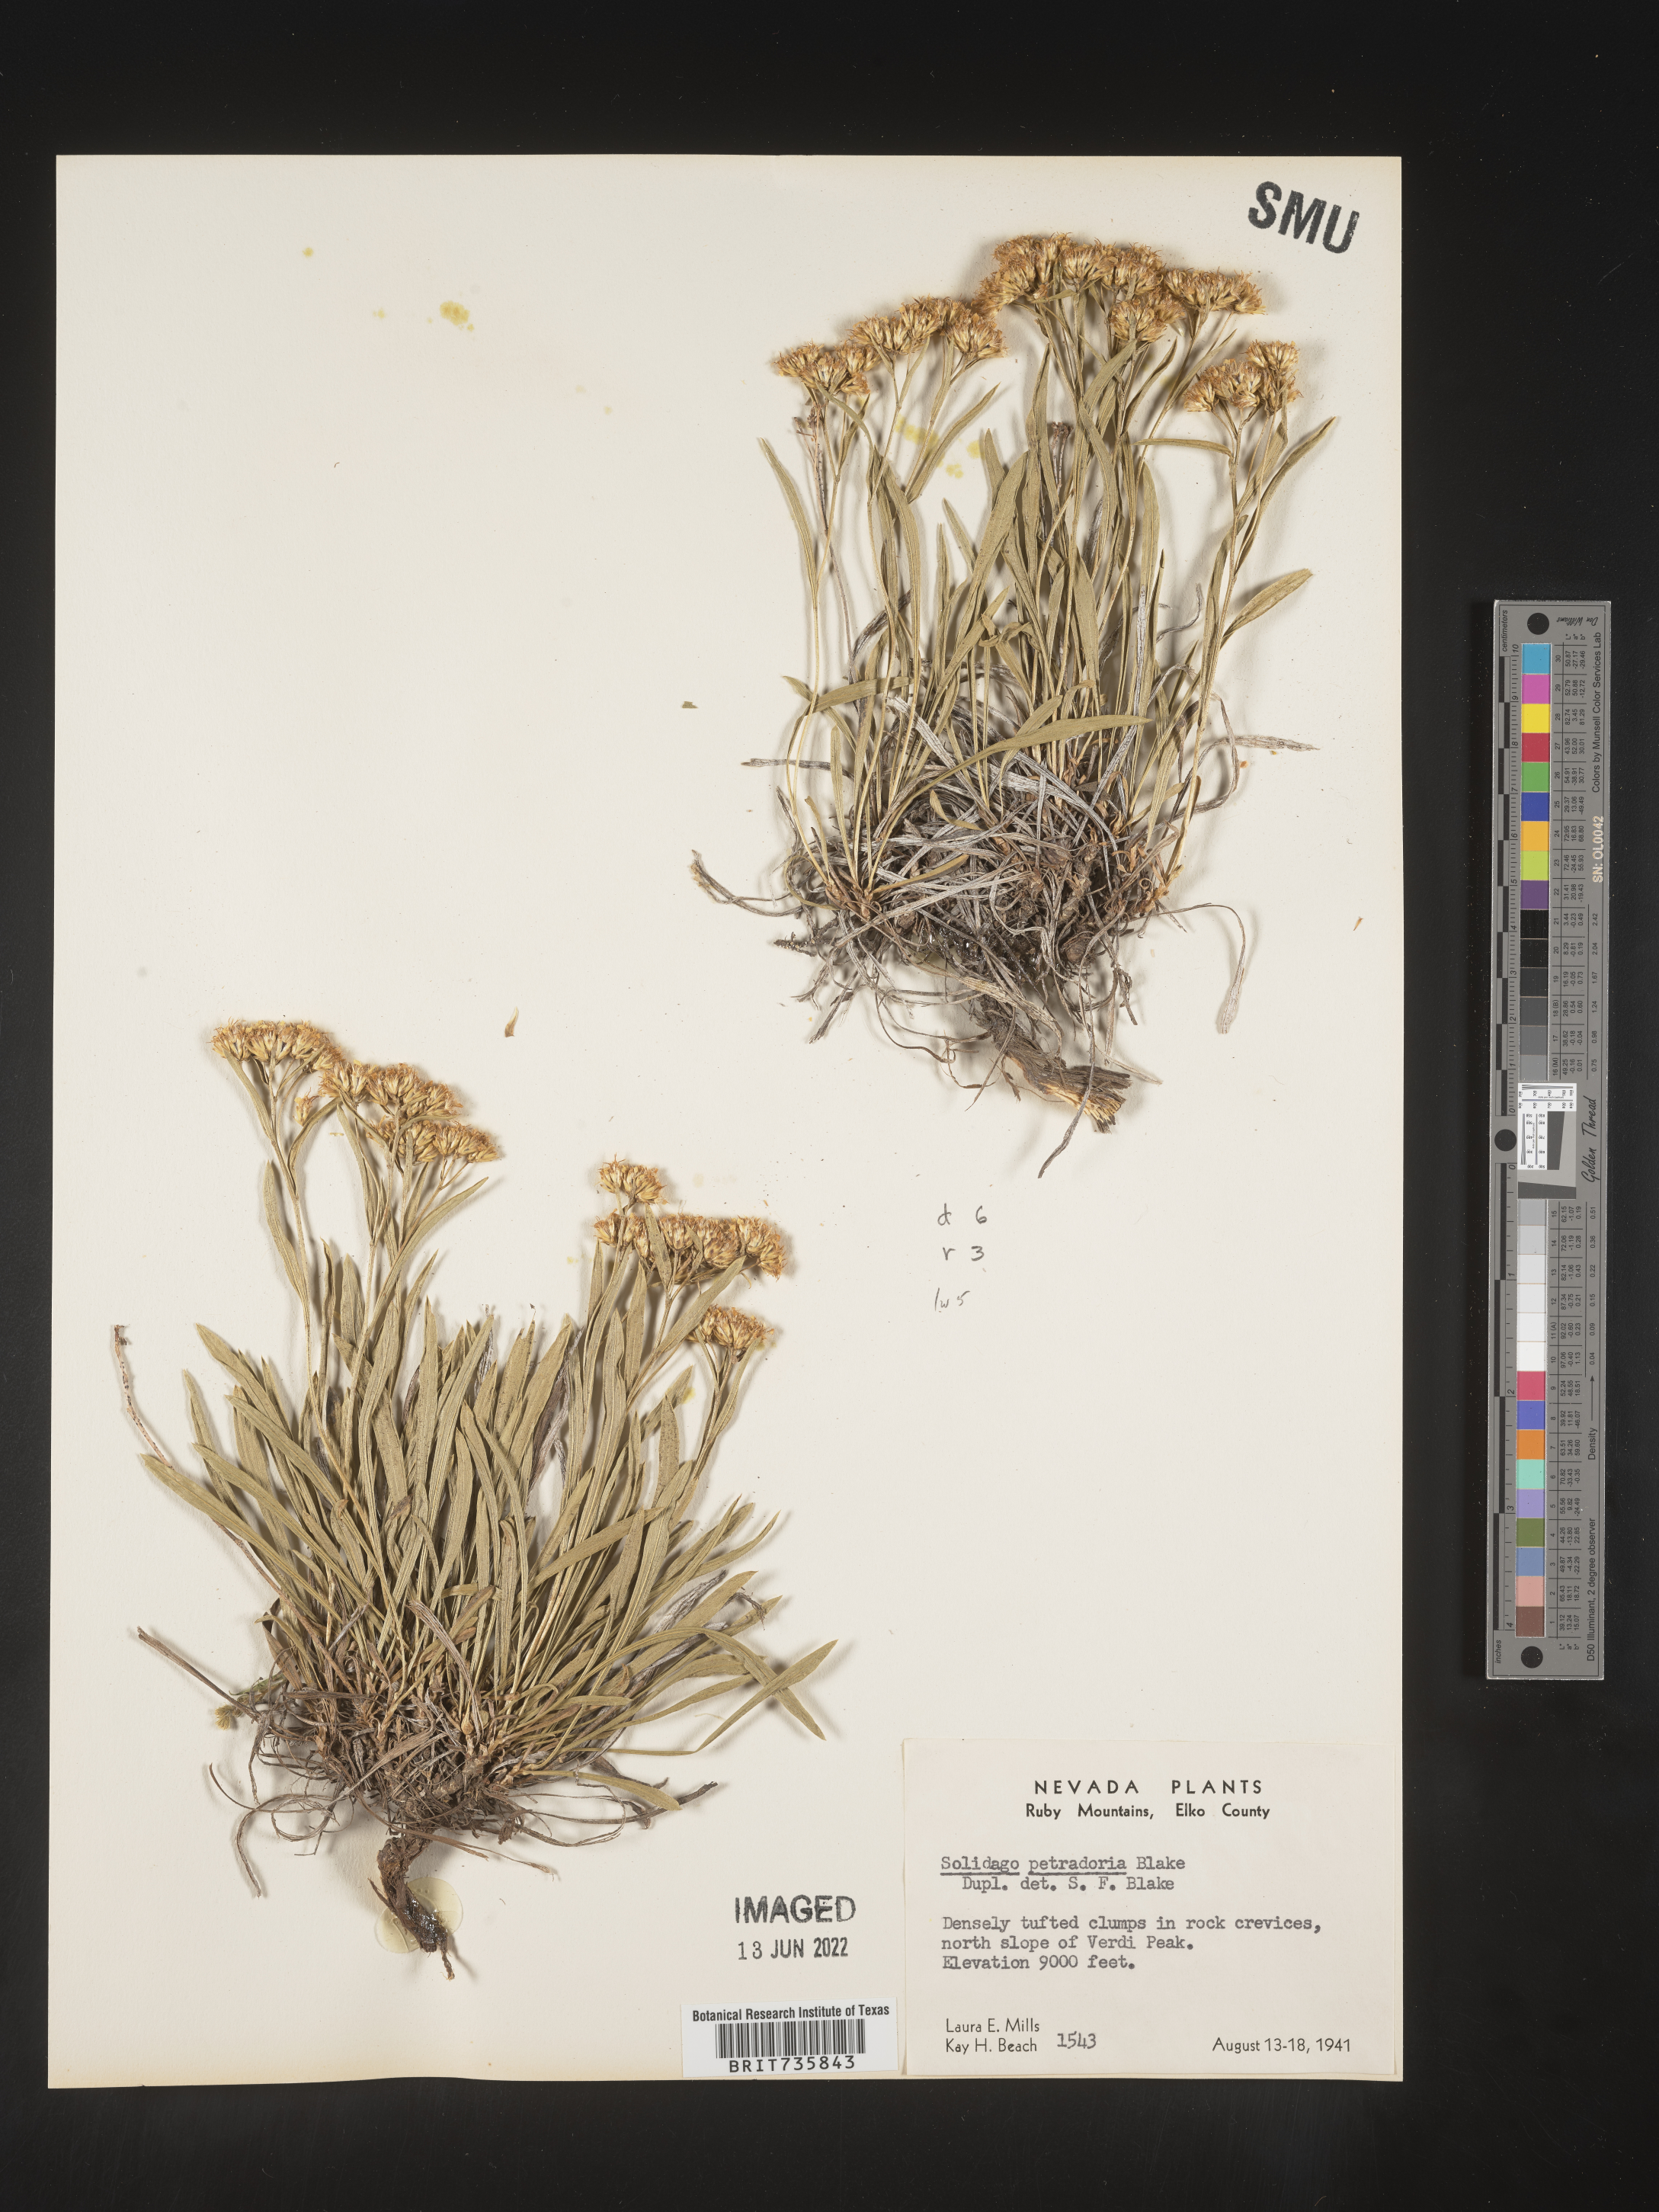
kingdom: Plantae
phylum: Tracheophyta
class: Magnoliopsida
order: Asterales
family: Asteraceae
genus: Petradoria
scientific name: Petradoria pumila
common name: Rock-goldenrod
